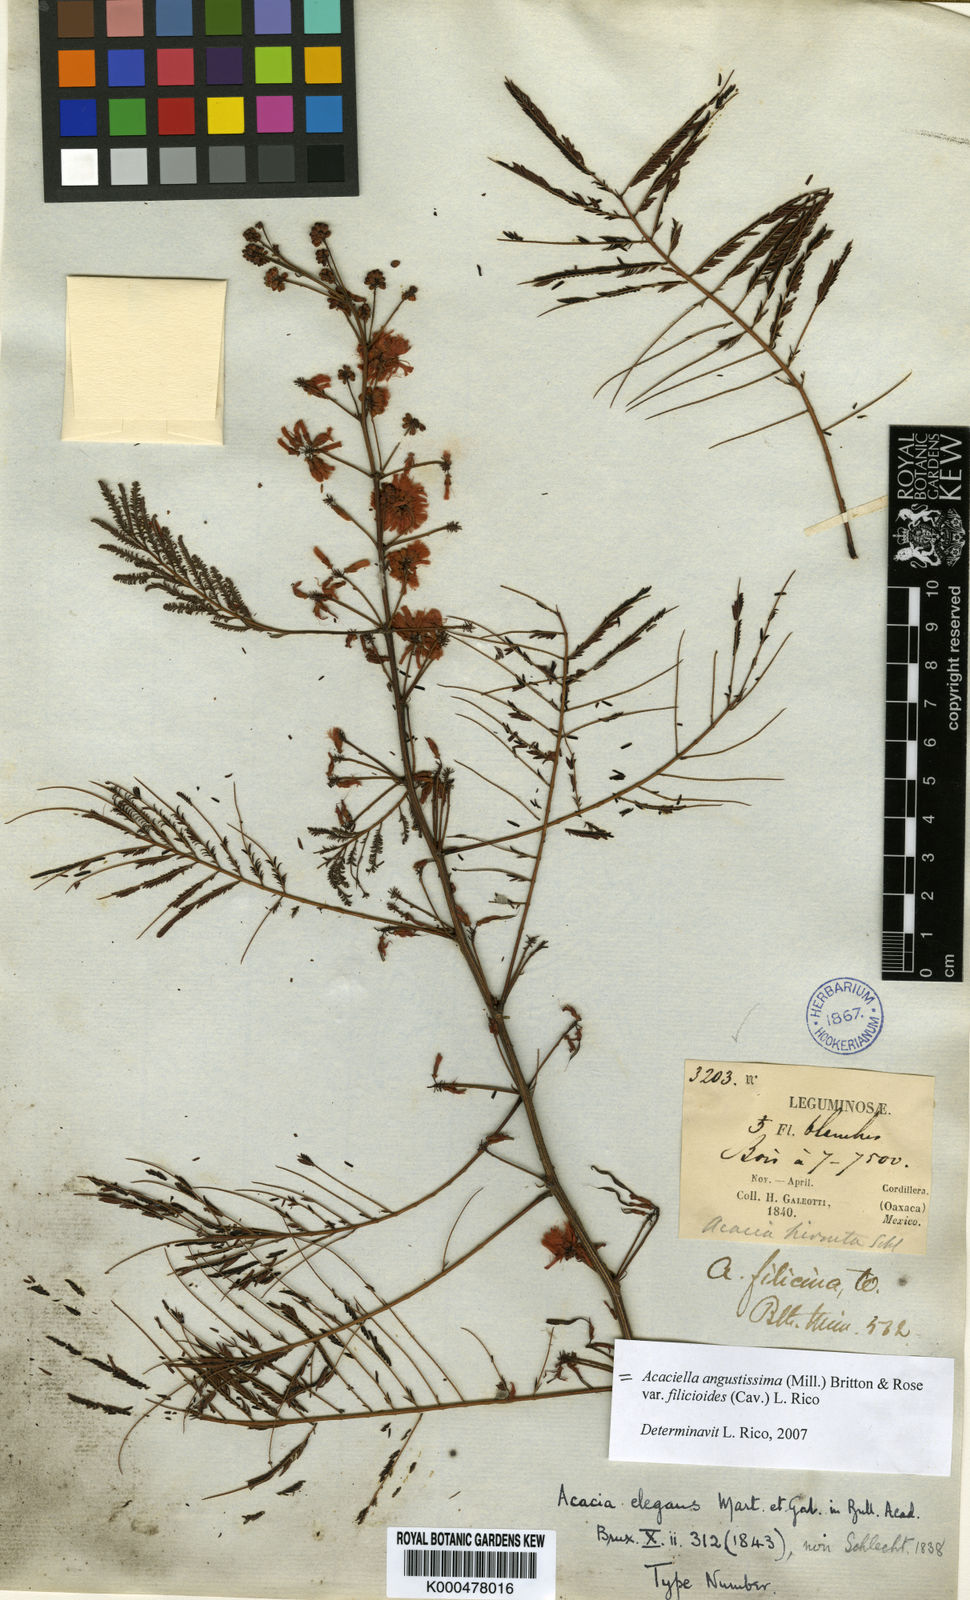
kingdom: Plantae
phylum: Tracheophyta
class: Magnoliopsida
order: Fabales
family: Fabaceae
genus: Acaciella
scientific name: Acaciella angustissima
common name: Prairie acacia
